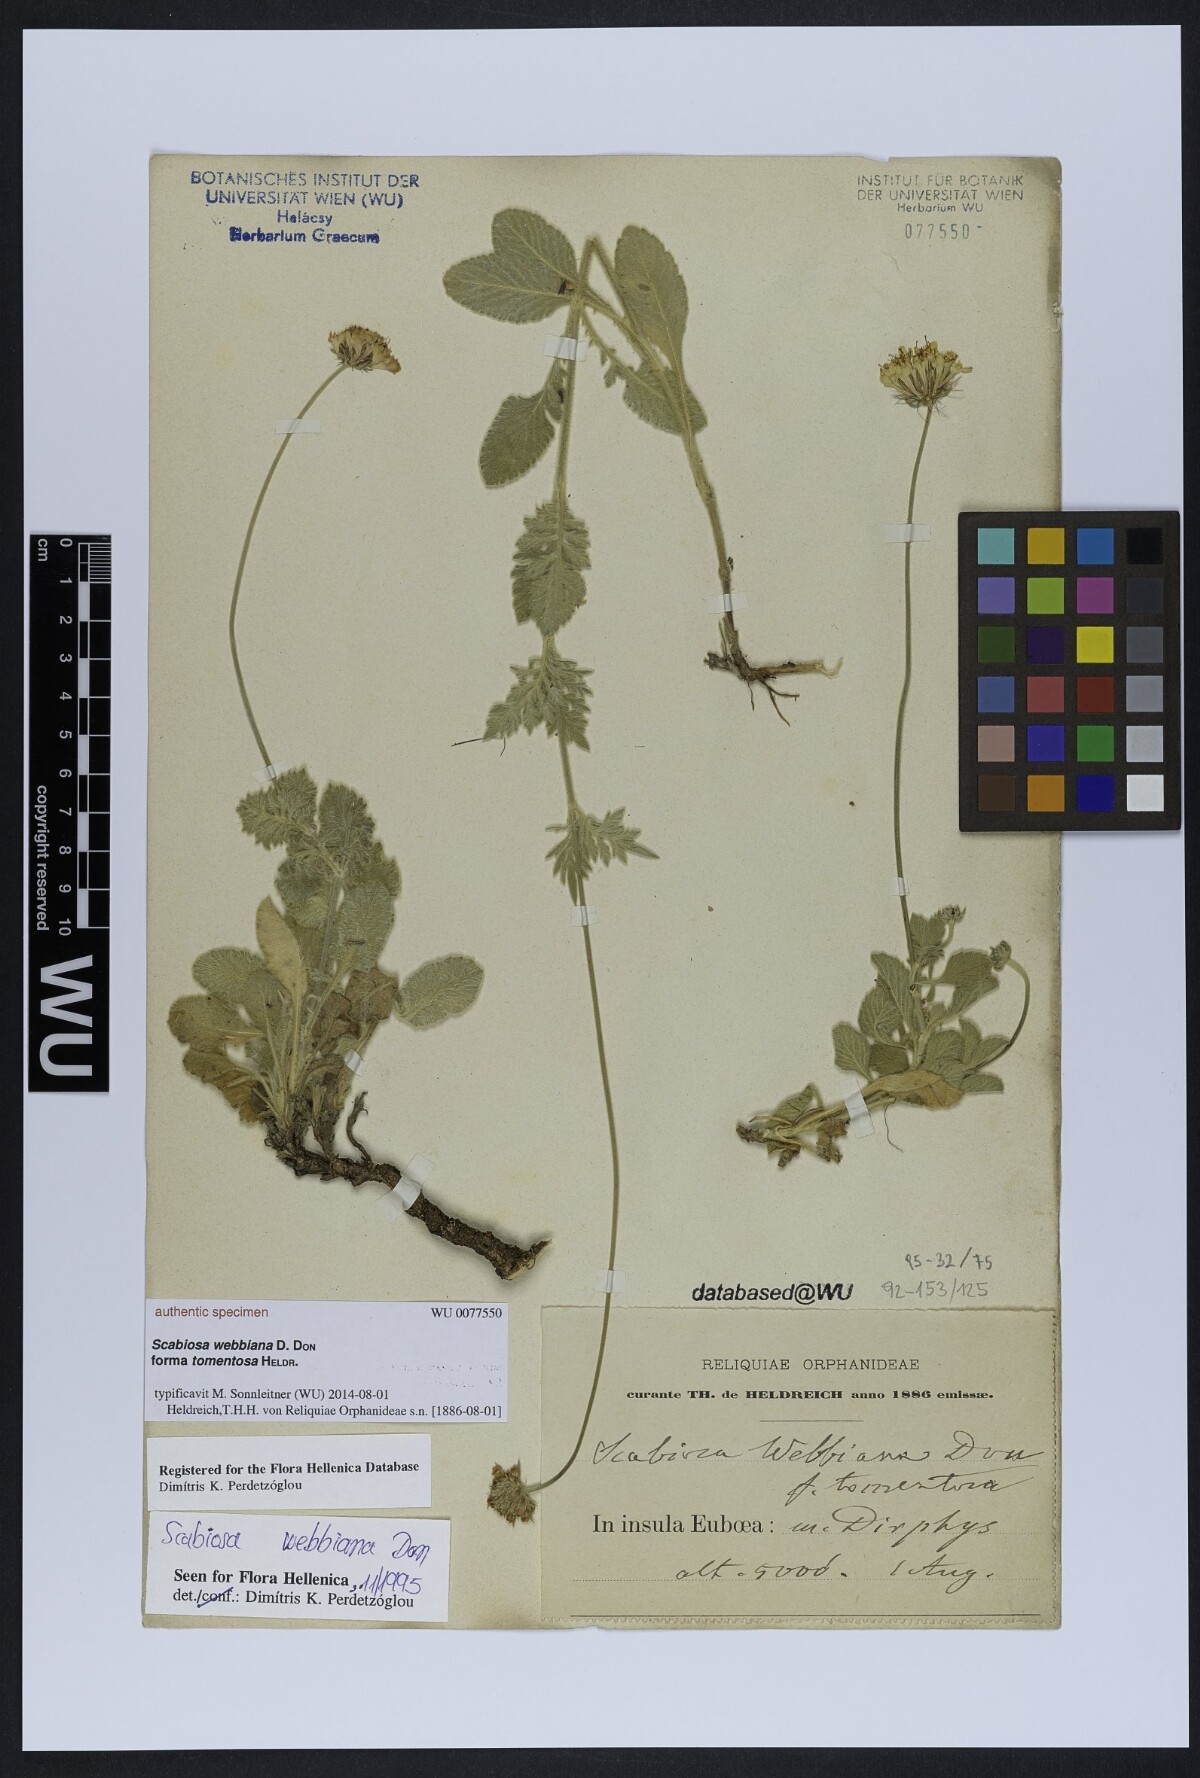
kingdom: Plantae
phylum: Tracheophyta
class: Magnoliopsida
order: Dipsacales
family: Caprifoliaceae
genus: Scabiosa
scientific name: Scabiosa webbiana
